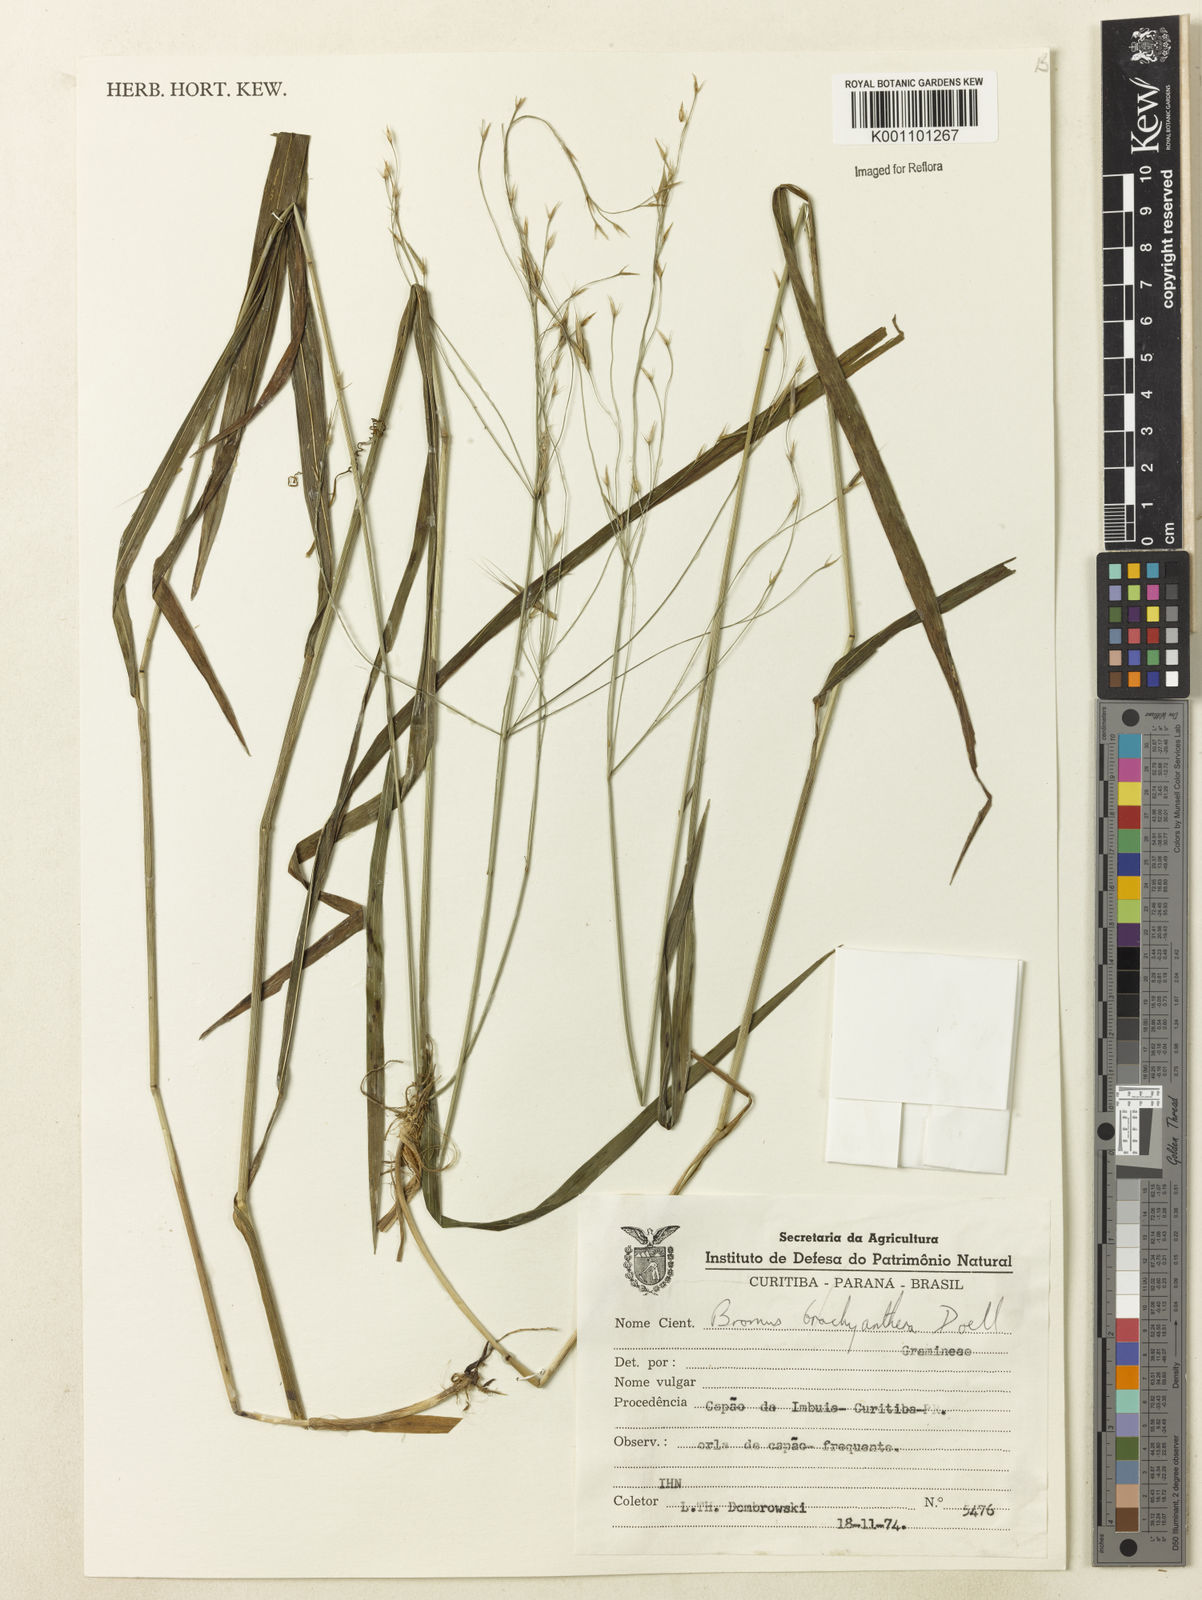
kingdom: Plantae
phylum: Tracheophyta
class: Liliopsida
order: Poales
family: Poaceae
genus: Bromus
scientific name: Bromus
